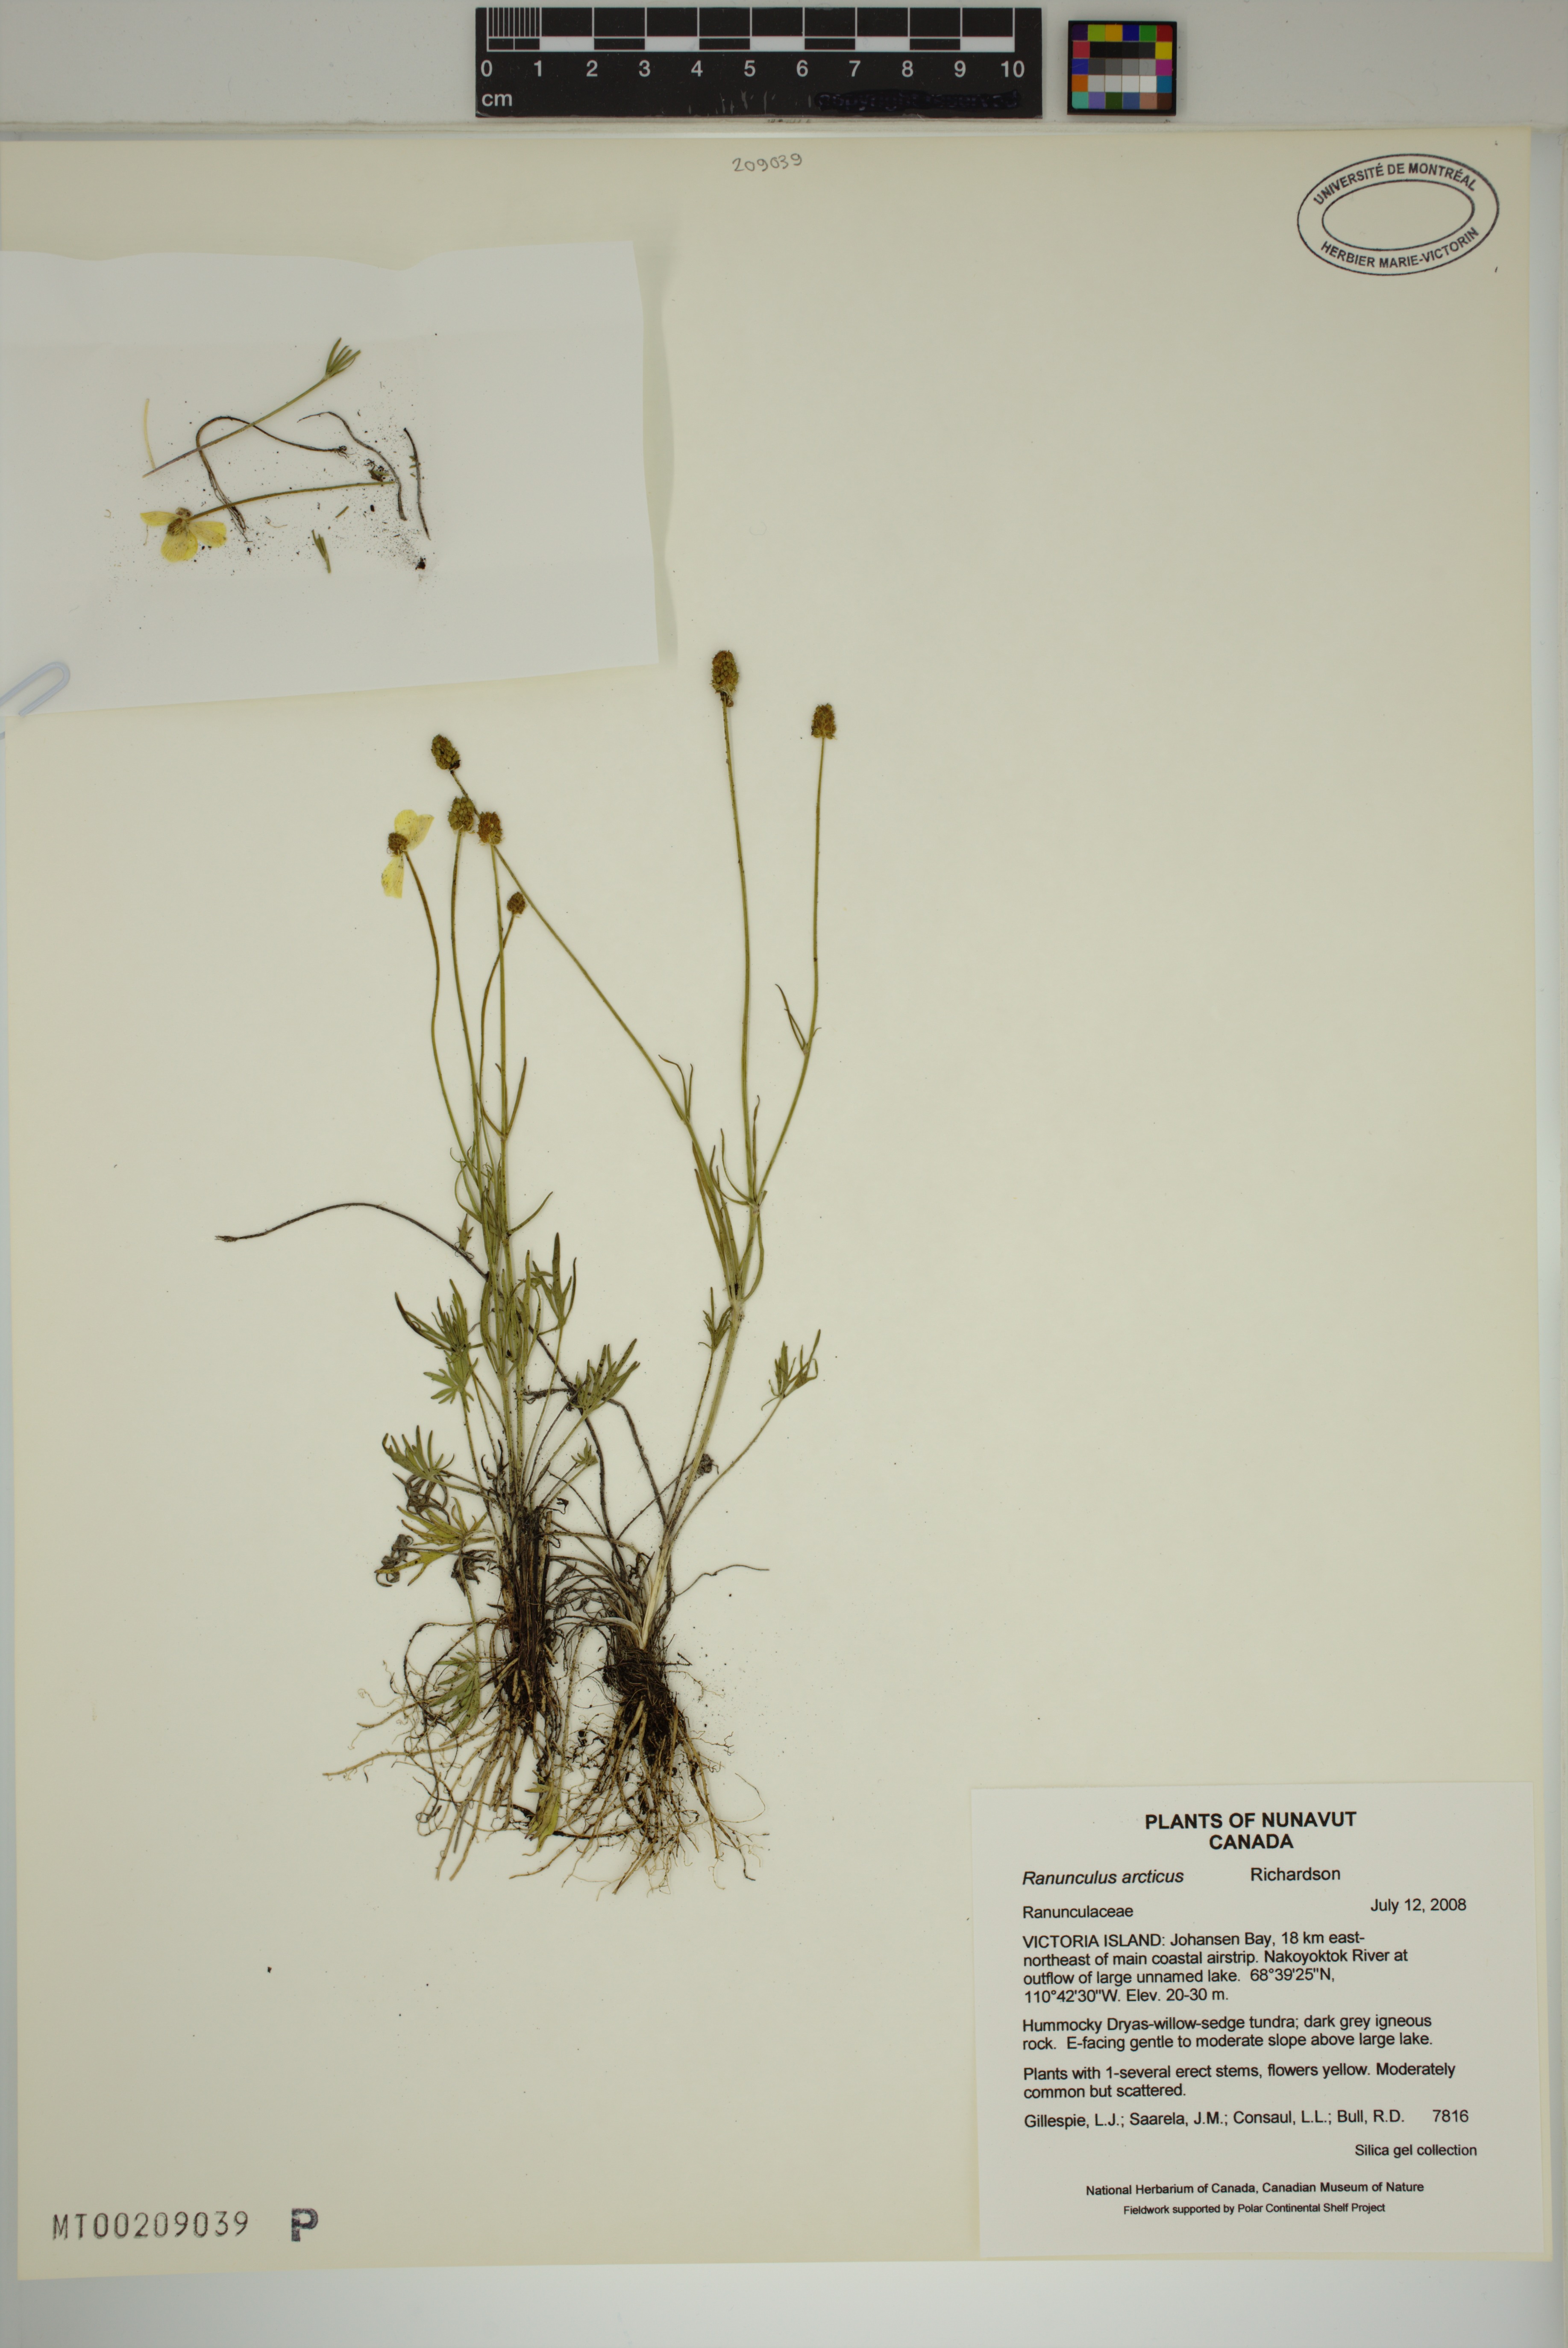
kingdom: Plantae
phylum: Tracheophyta
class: Magnoliopsida
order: Ranunculales
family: Ranunculaceae
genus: Ranunculus
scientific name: Ranunculus arcticus
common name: Bird's-foot buttercup
